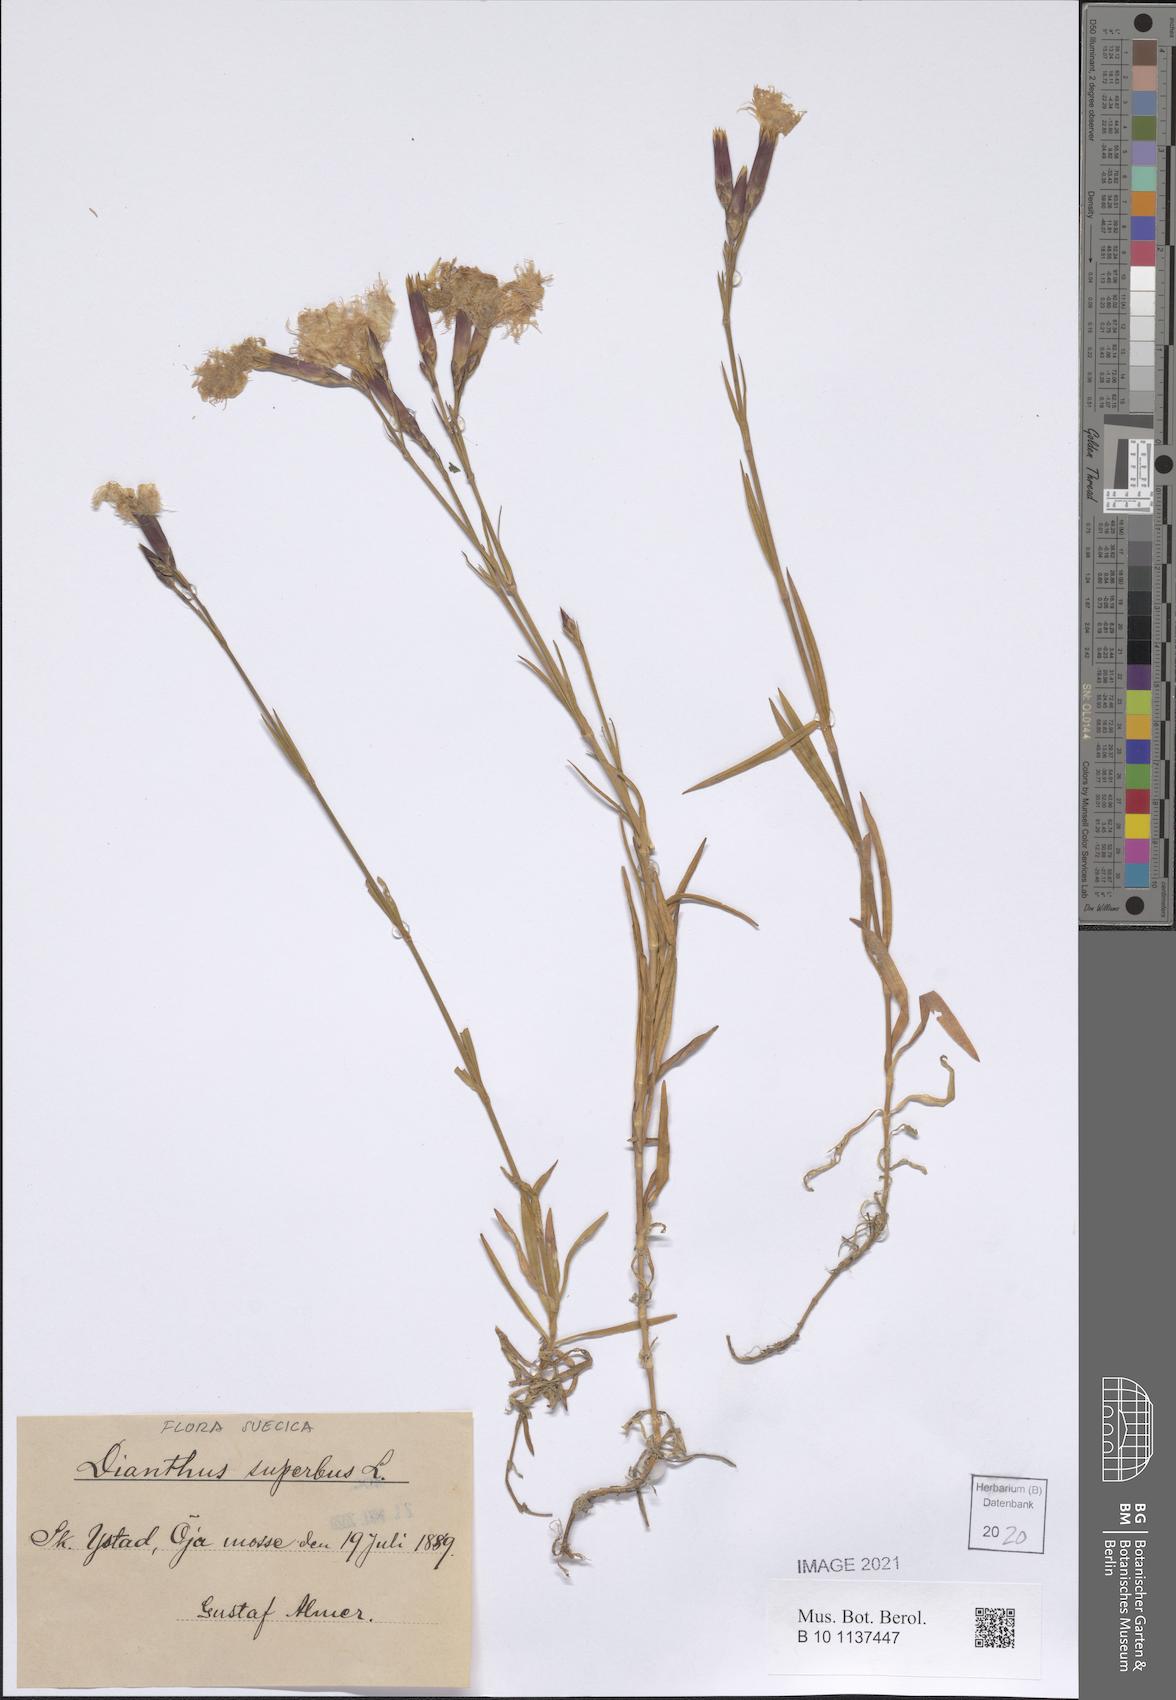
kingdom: Plantae
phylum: Tracheophyta
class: Magnoliopsida
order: Caryophyllales
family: Caryophyllaceae
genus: Dianthus
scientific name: Dianthus superbus
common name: Fringed pink
